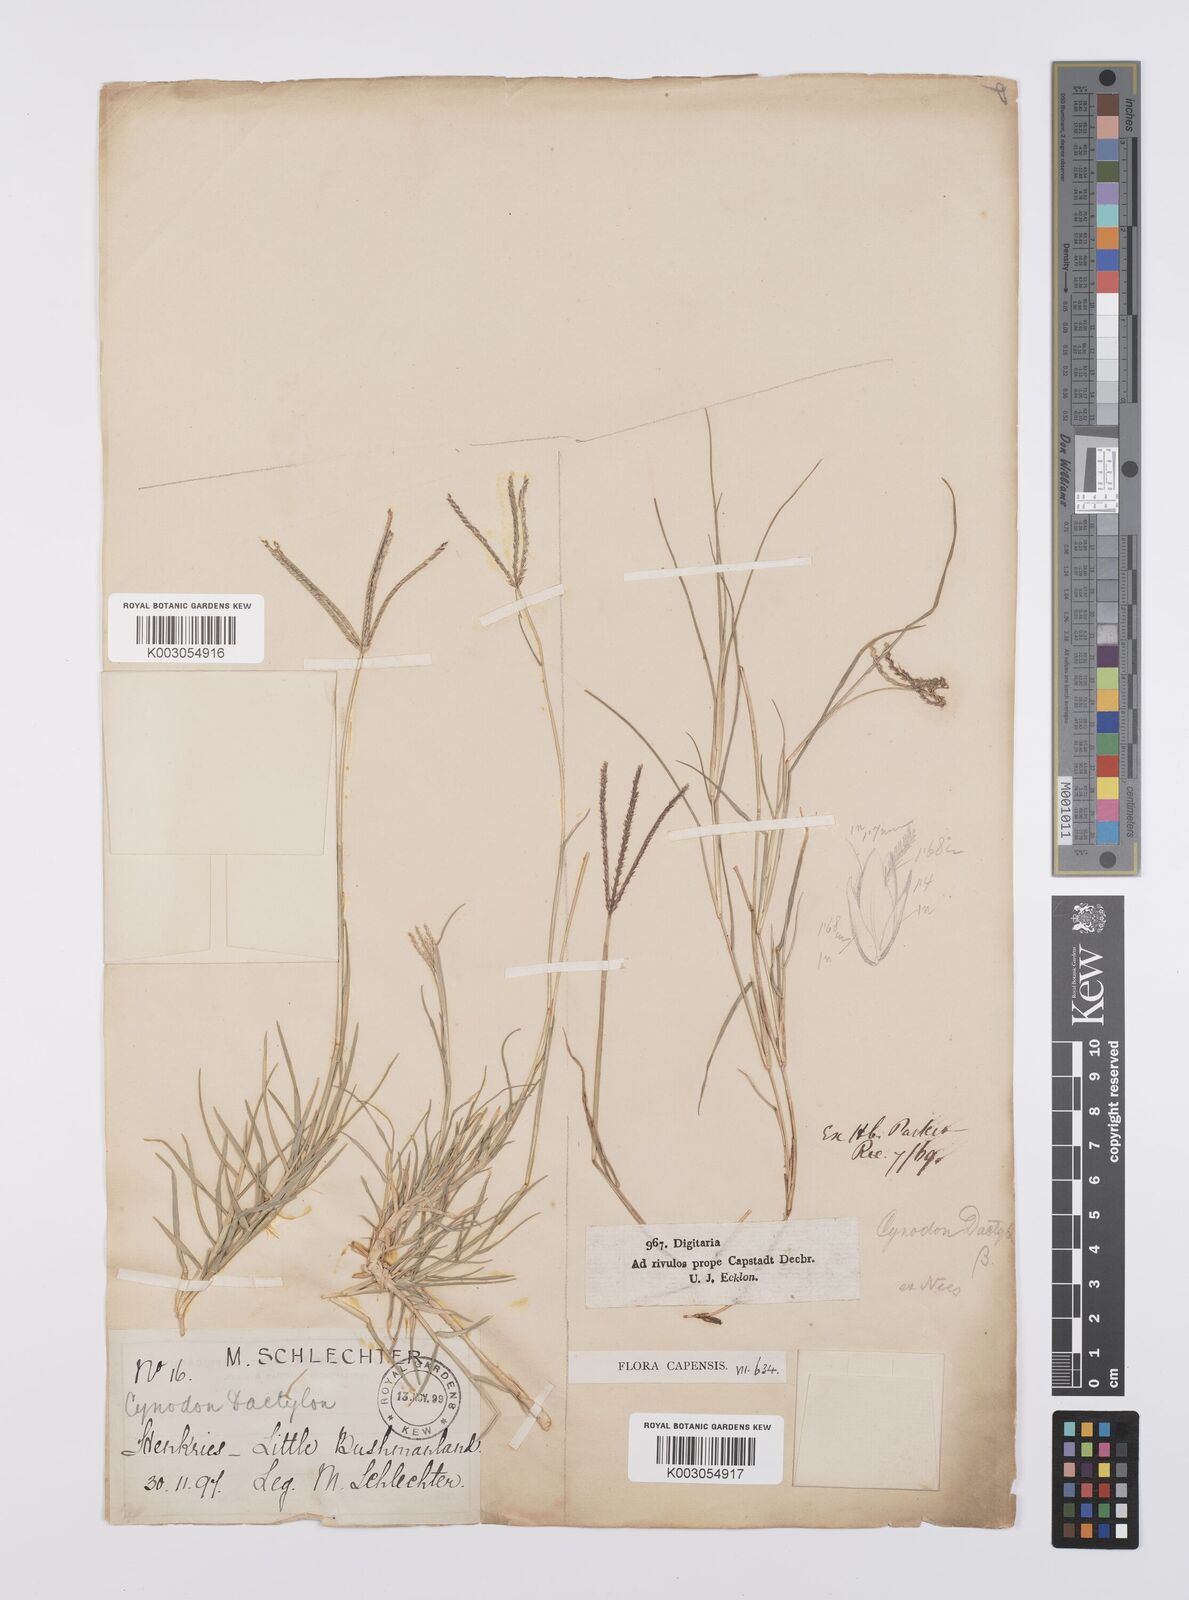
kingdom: Plantae
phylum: Tracheophyta
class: Liliopsida
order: Poales
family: Poaceae
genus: Cynodon
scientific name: Cynodon dactylon
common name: Bermuda grass
